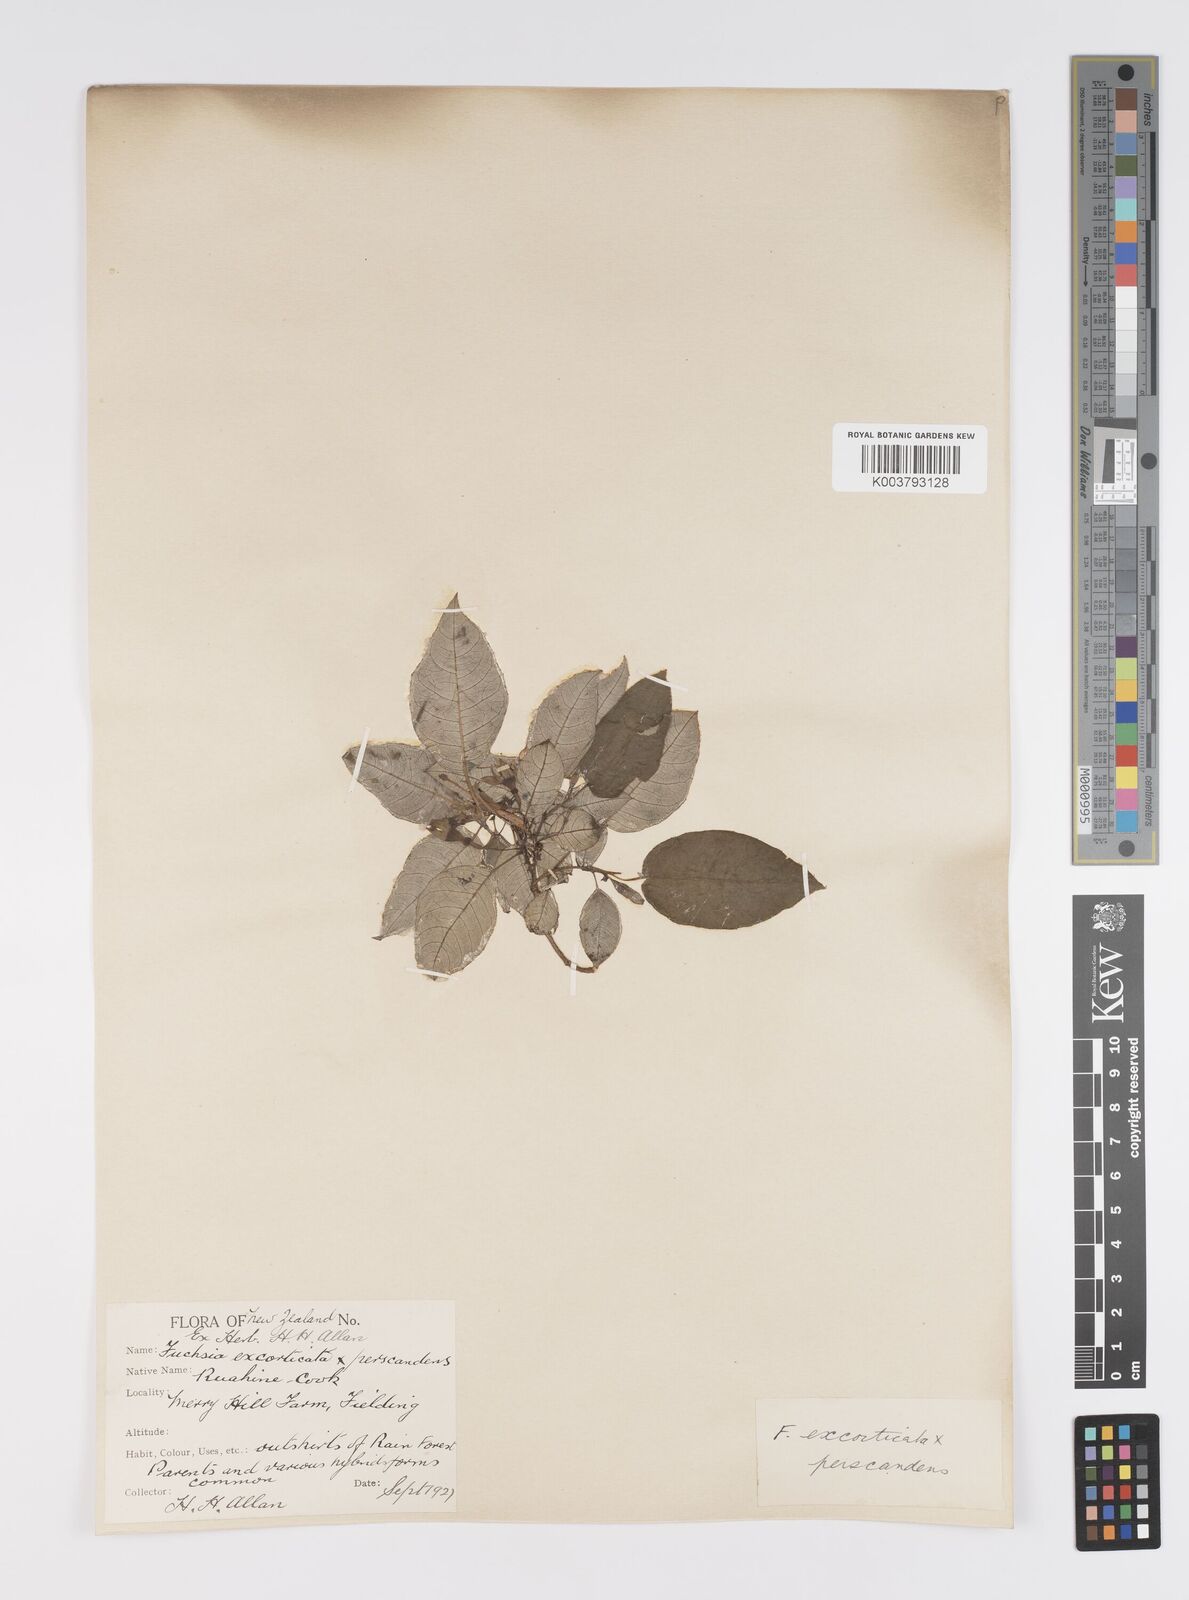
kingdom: Plantae
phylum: Tracheophyta
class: Magnoliopsida
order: Myrtales
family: Onagraceae
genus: Fuchsia
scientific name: Fuchsia excorticata
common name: Tree fuchsia
